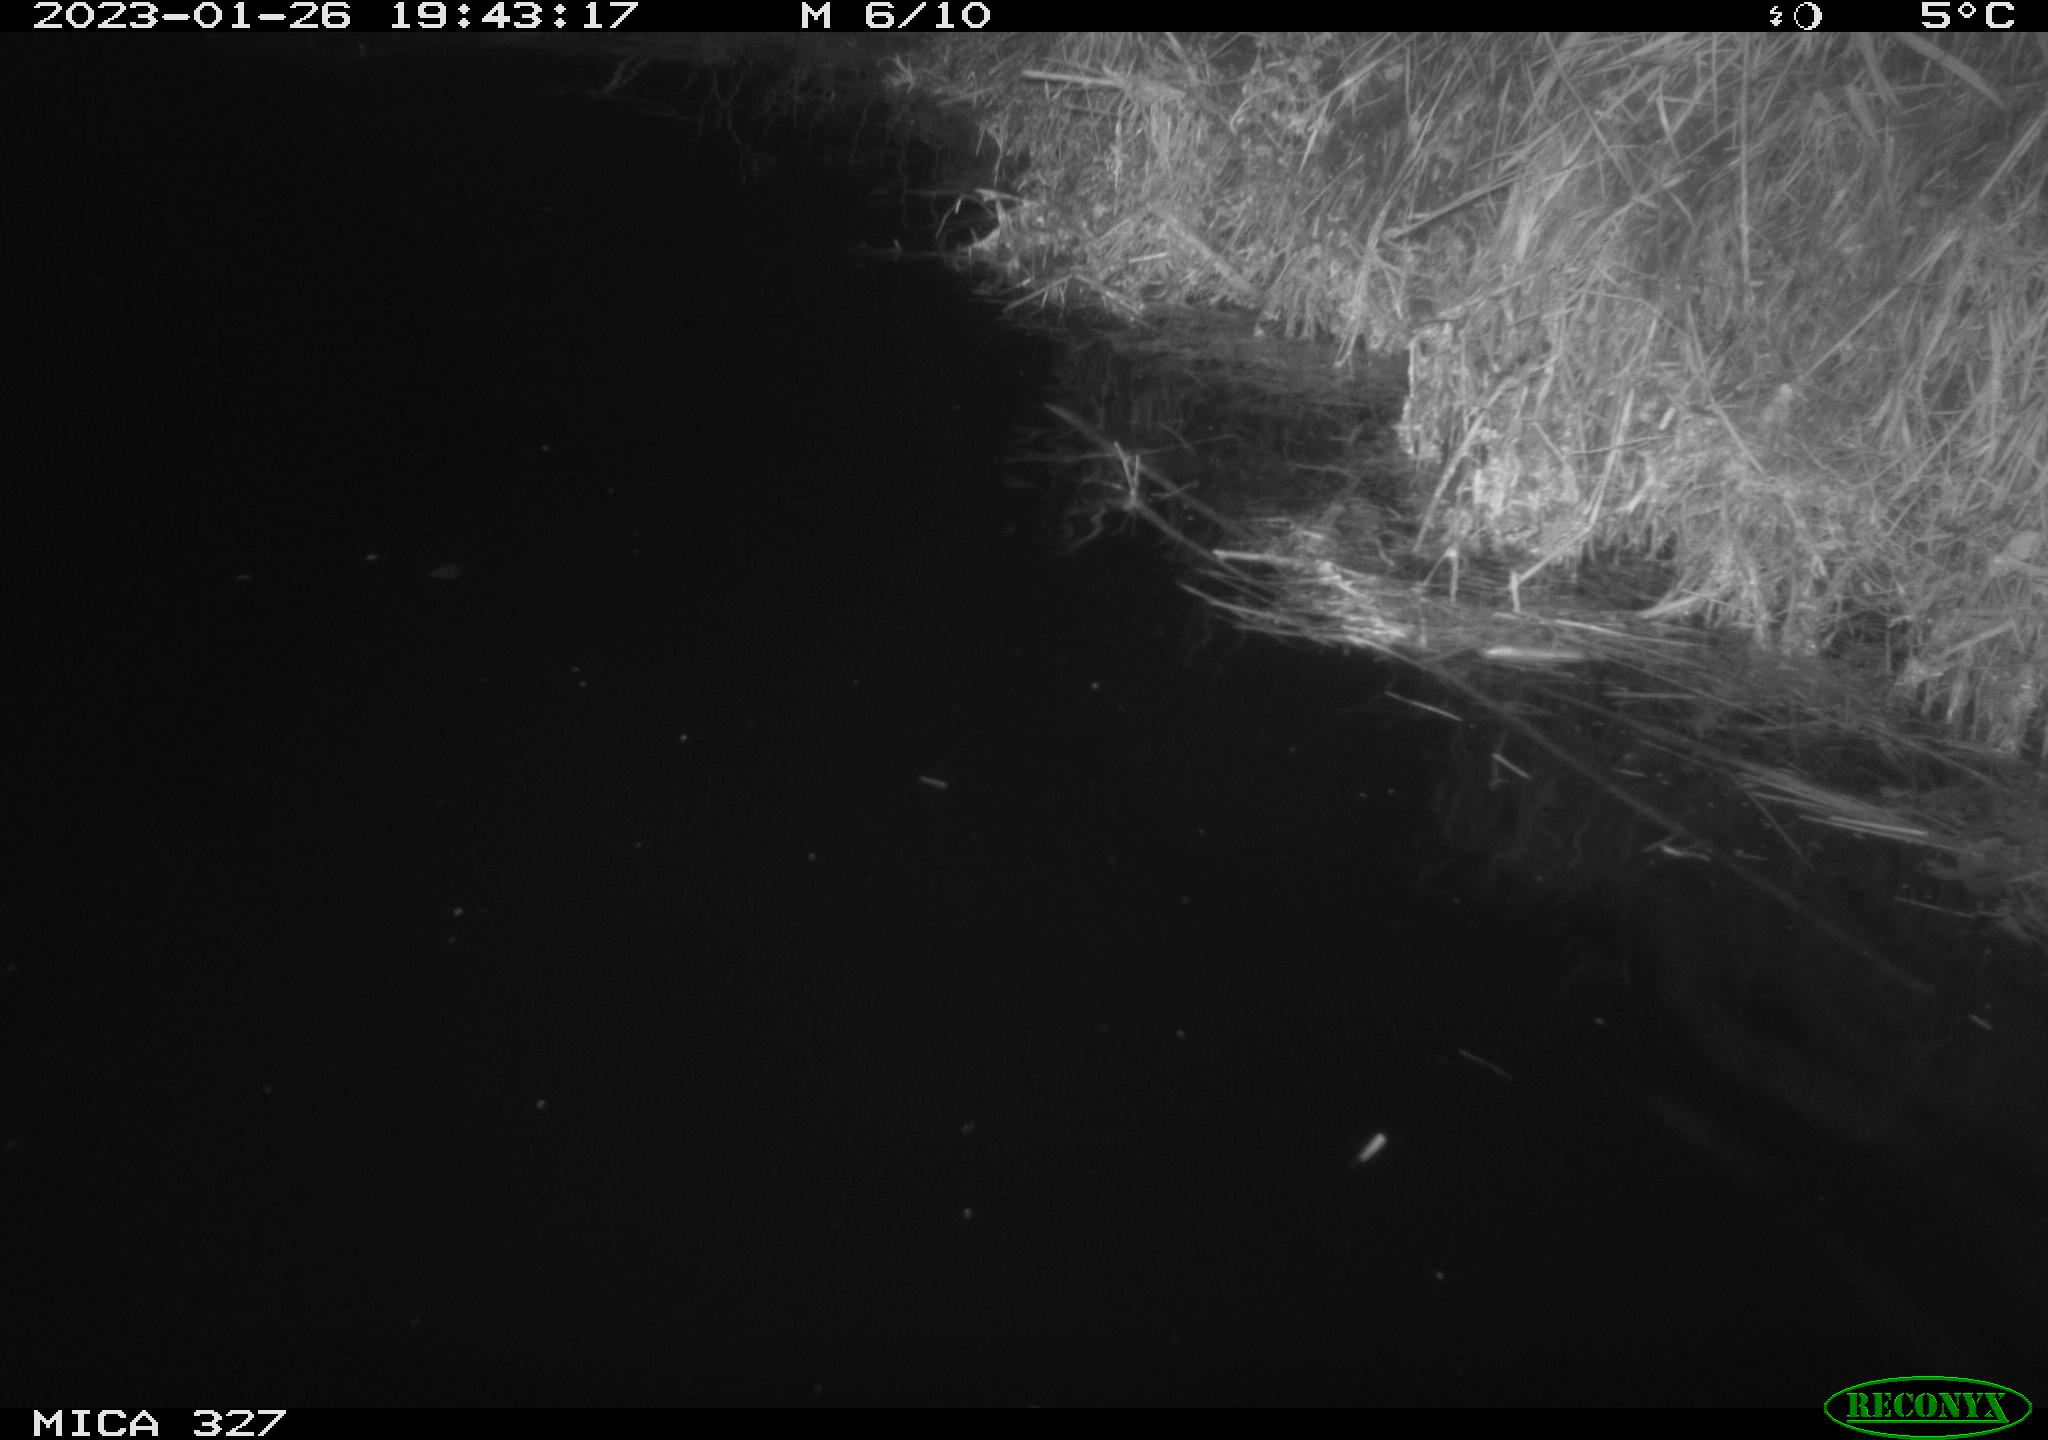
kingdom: Animalia
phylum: Chordata
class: Mammalia
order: Rodentia
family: Cricetidae
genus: Ondatra
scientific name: Ondatra zibethicus
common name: Muskrat
